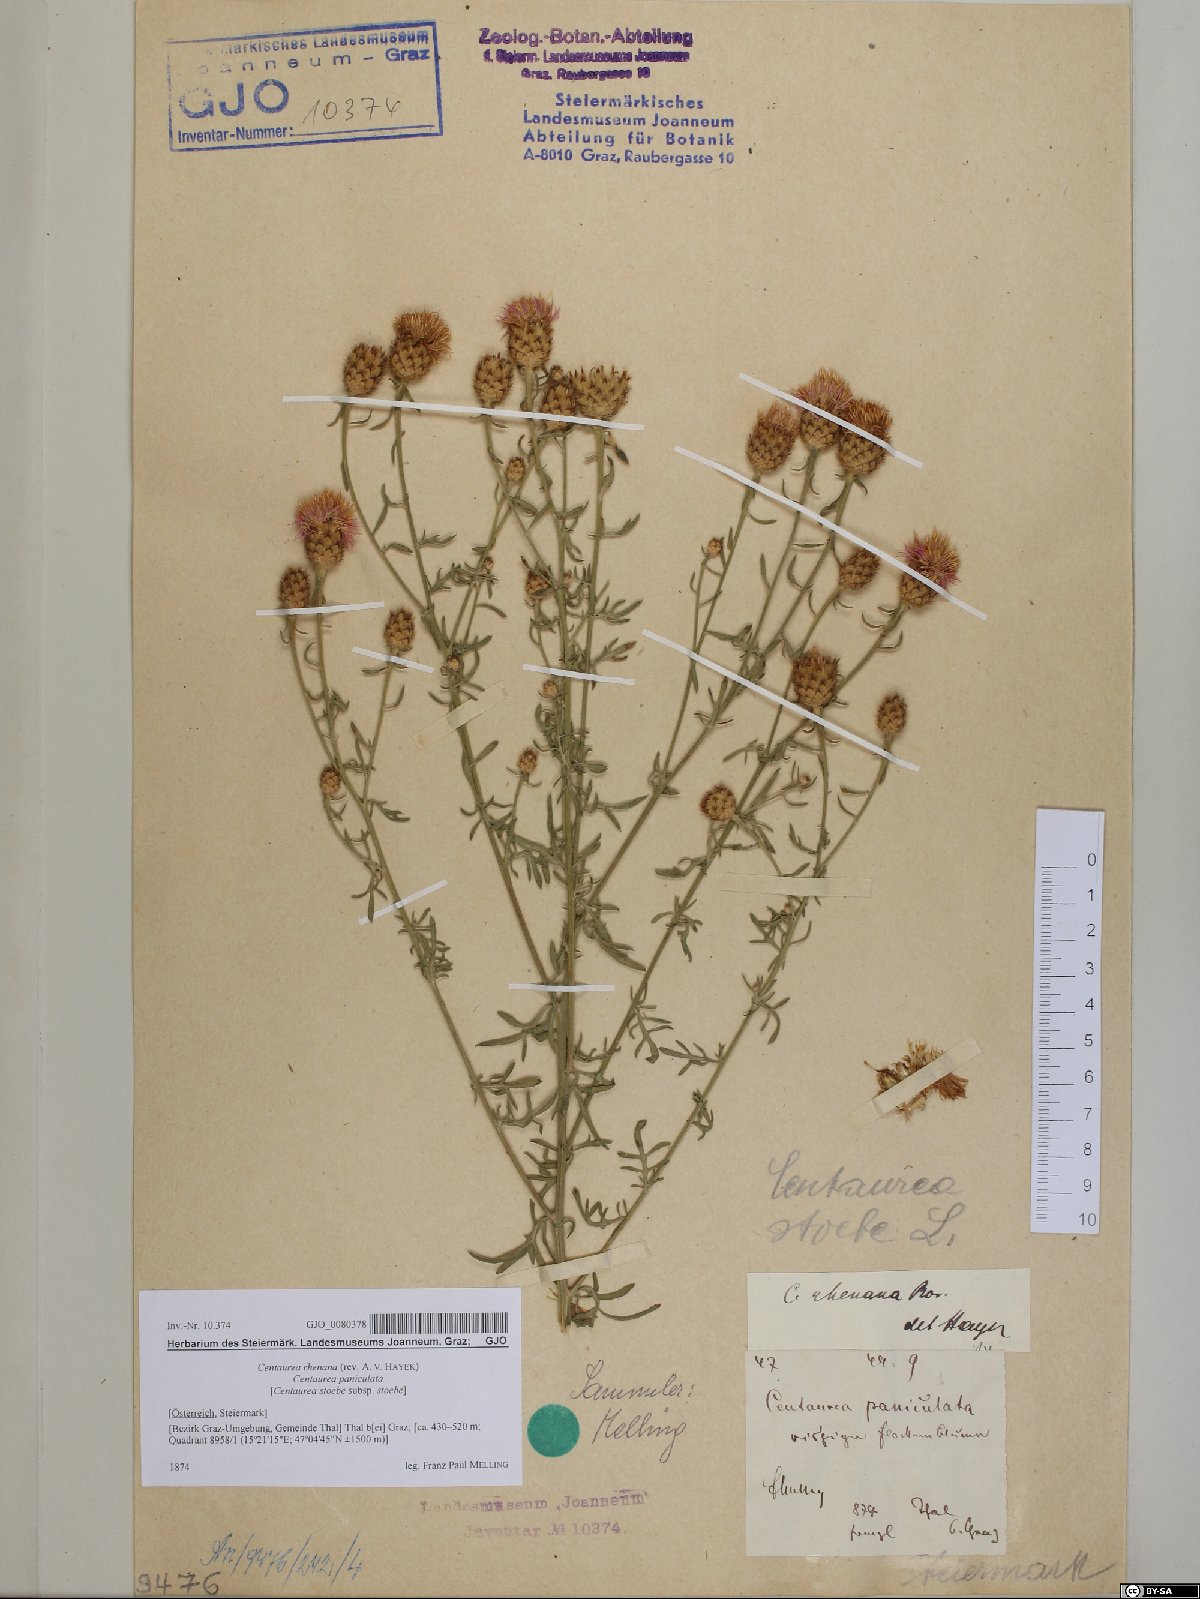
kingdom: Plantae
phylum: Tracheophyta
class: Magnoliopsida
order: Asterales
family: Asteraceae
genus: Centaurea
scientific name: Centaurea stoebe
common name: Spotted knapweed
